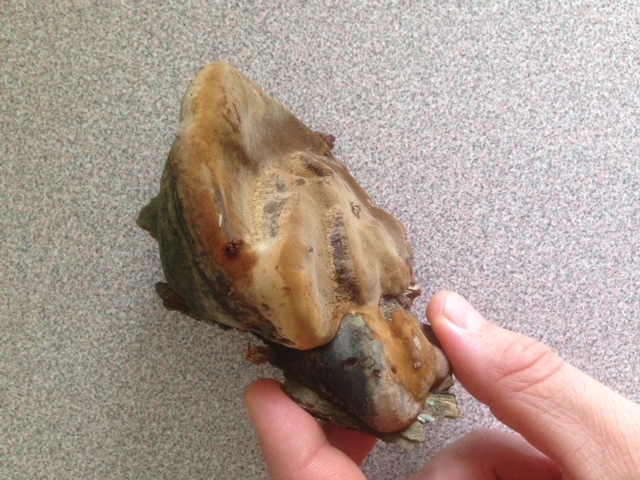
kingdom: Fungi
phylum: Basidiomycota
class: Agaricomycetes
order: Hymenochaetales
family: Hymenochaetaceae
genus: Phellinus
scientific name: Phellinus igniarius
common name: almindelig ildporesvamp
